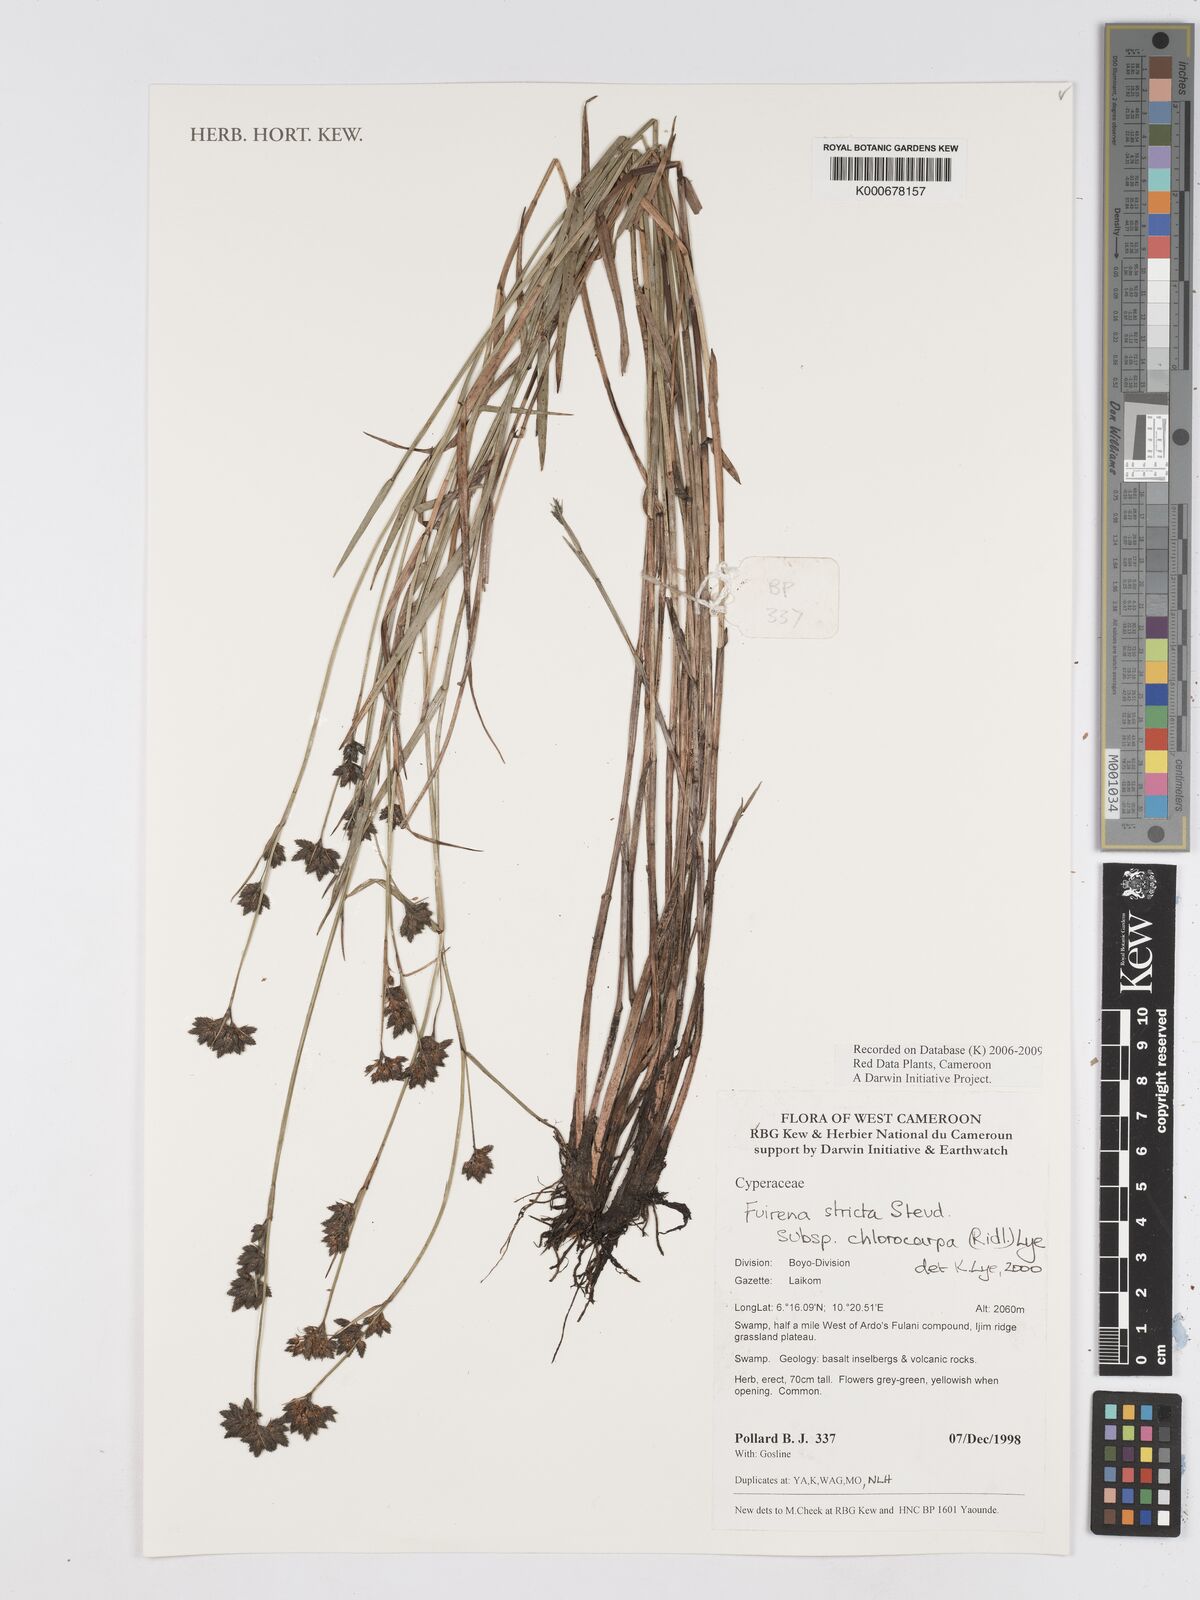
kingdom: Plantae
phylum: Tracheophyta
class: Liliopsida
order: Poales
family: Cyperaceae
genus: Fuirena
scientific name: Fuirena stricta
